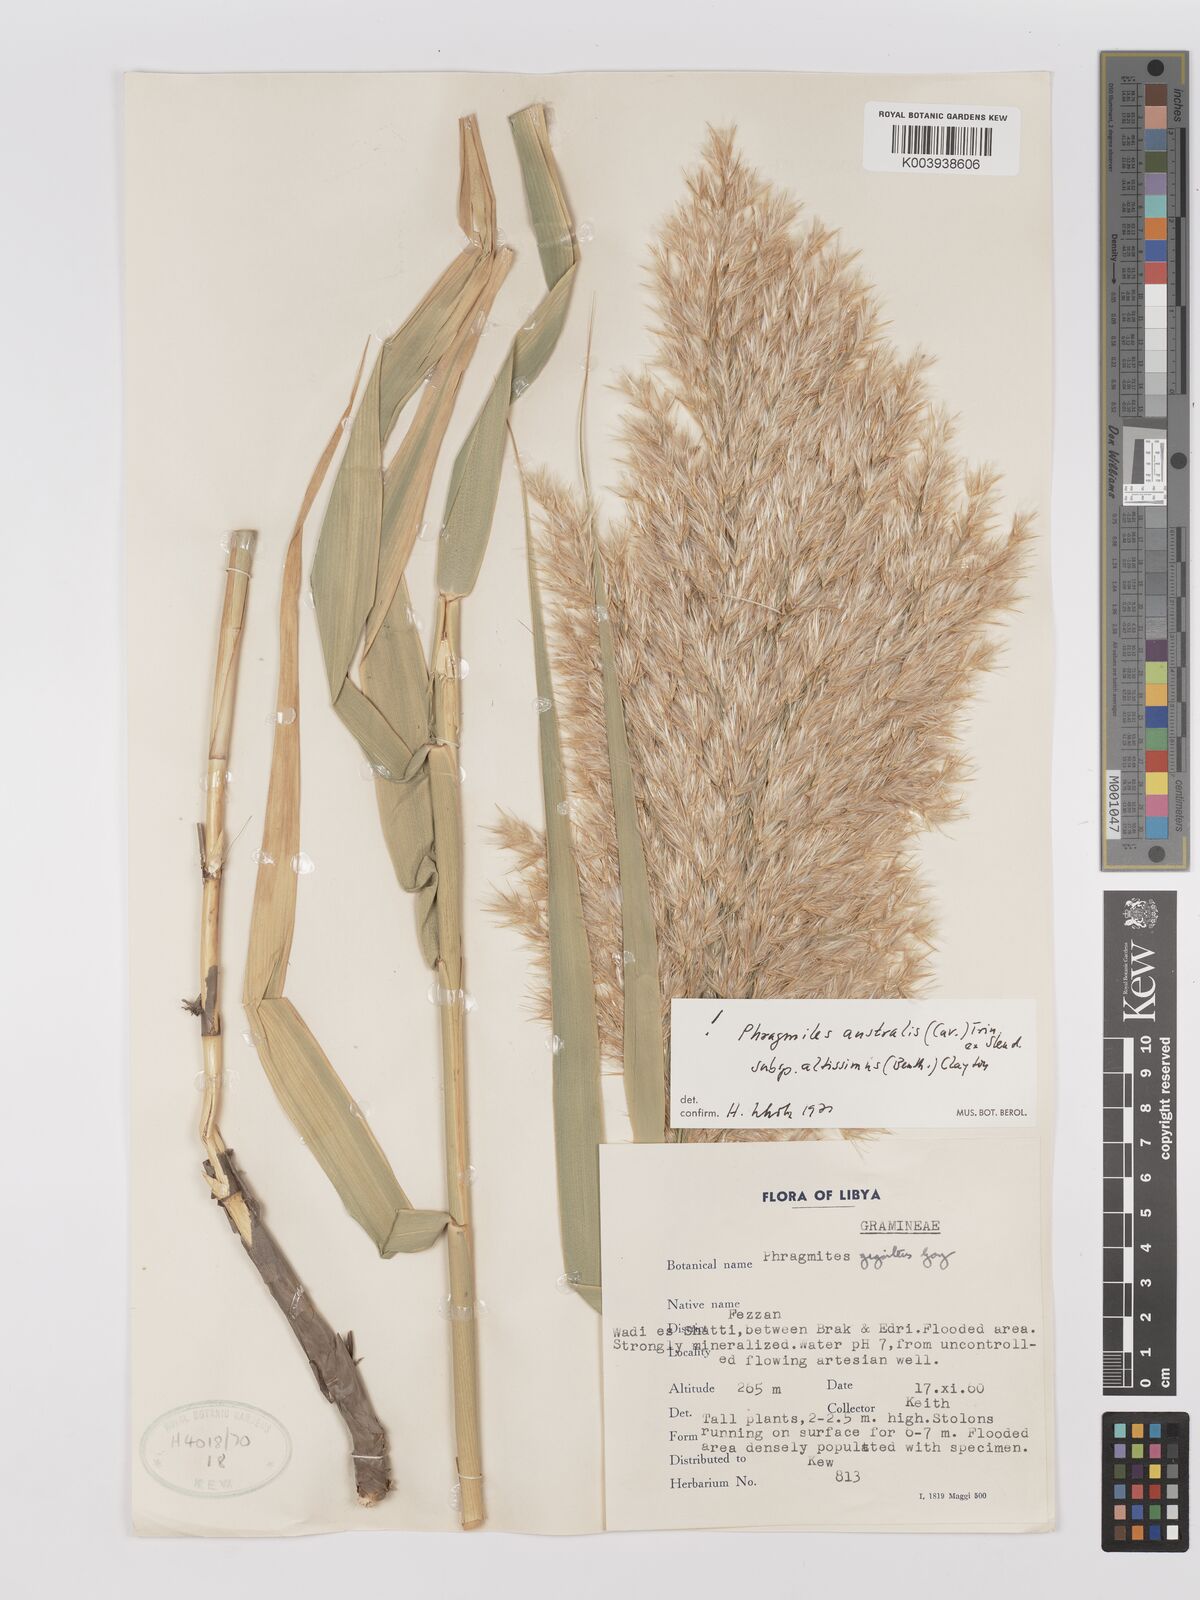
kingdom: Plantae
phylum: Tracheophyta
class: Liliopsida
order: Poales
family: Poaceae
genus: Phragmites
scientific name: Phragmites australis
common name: Common reed
